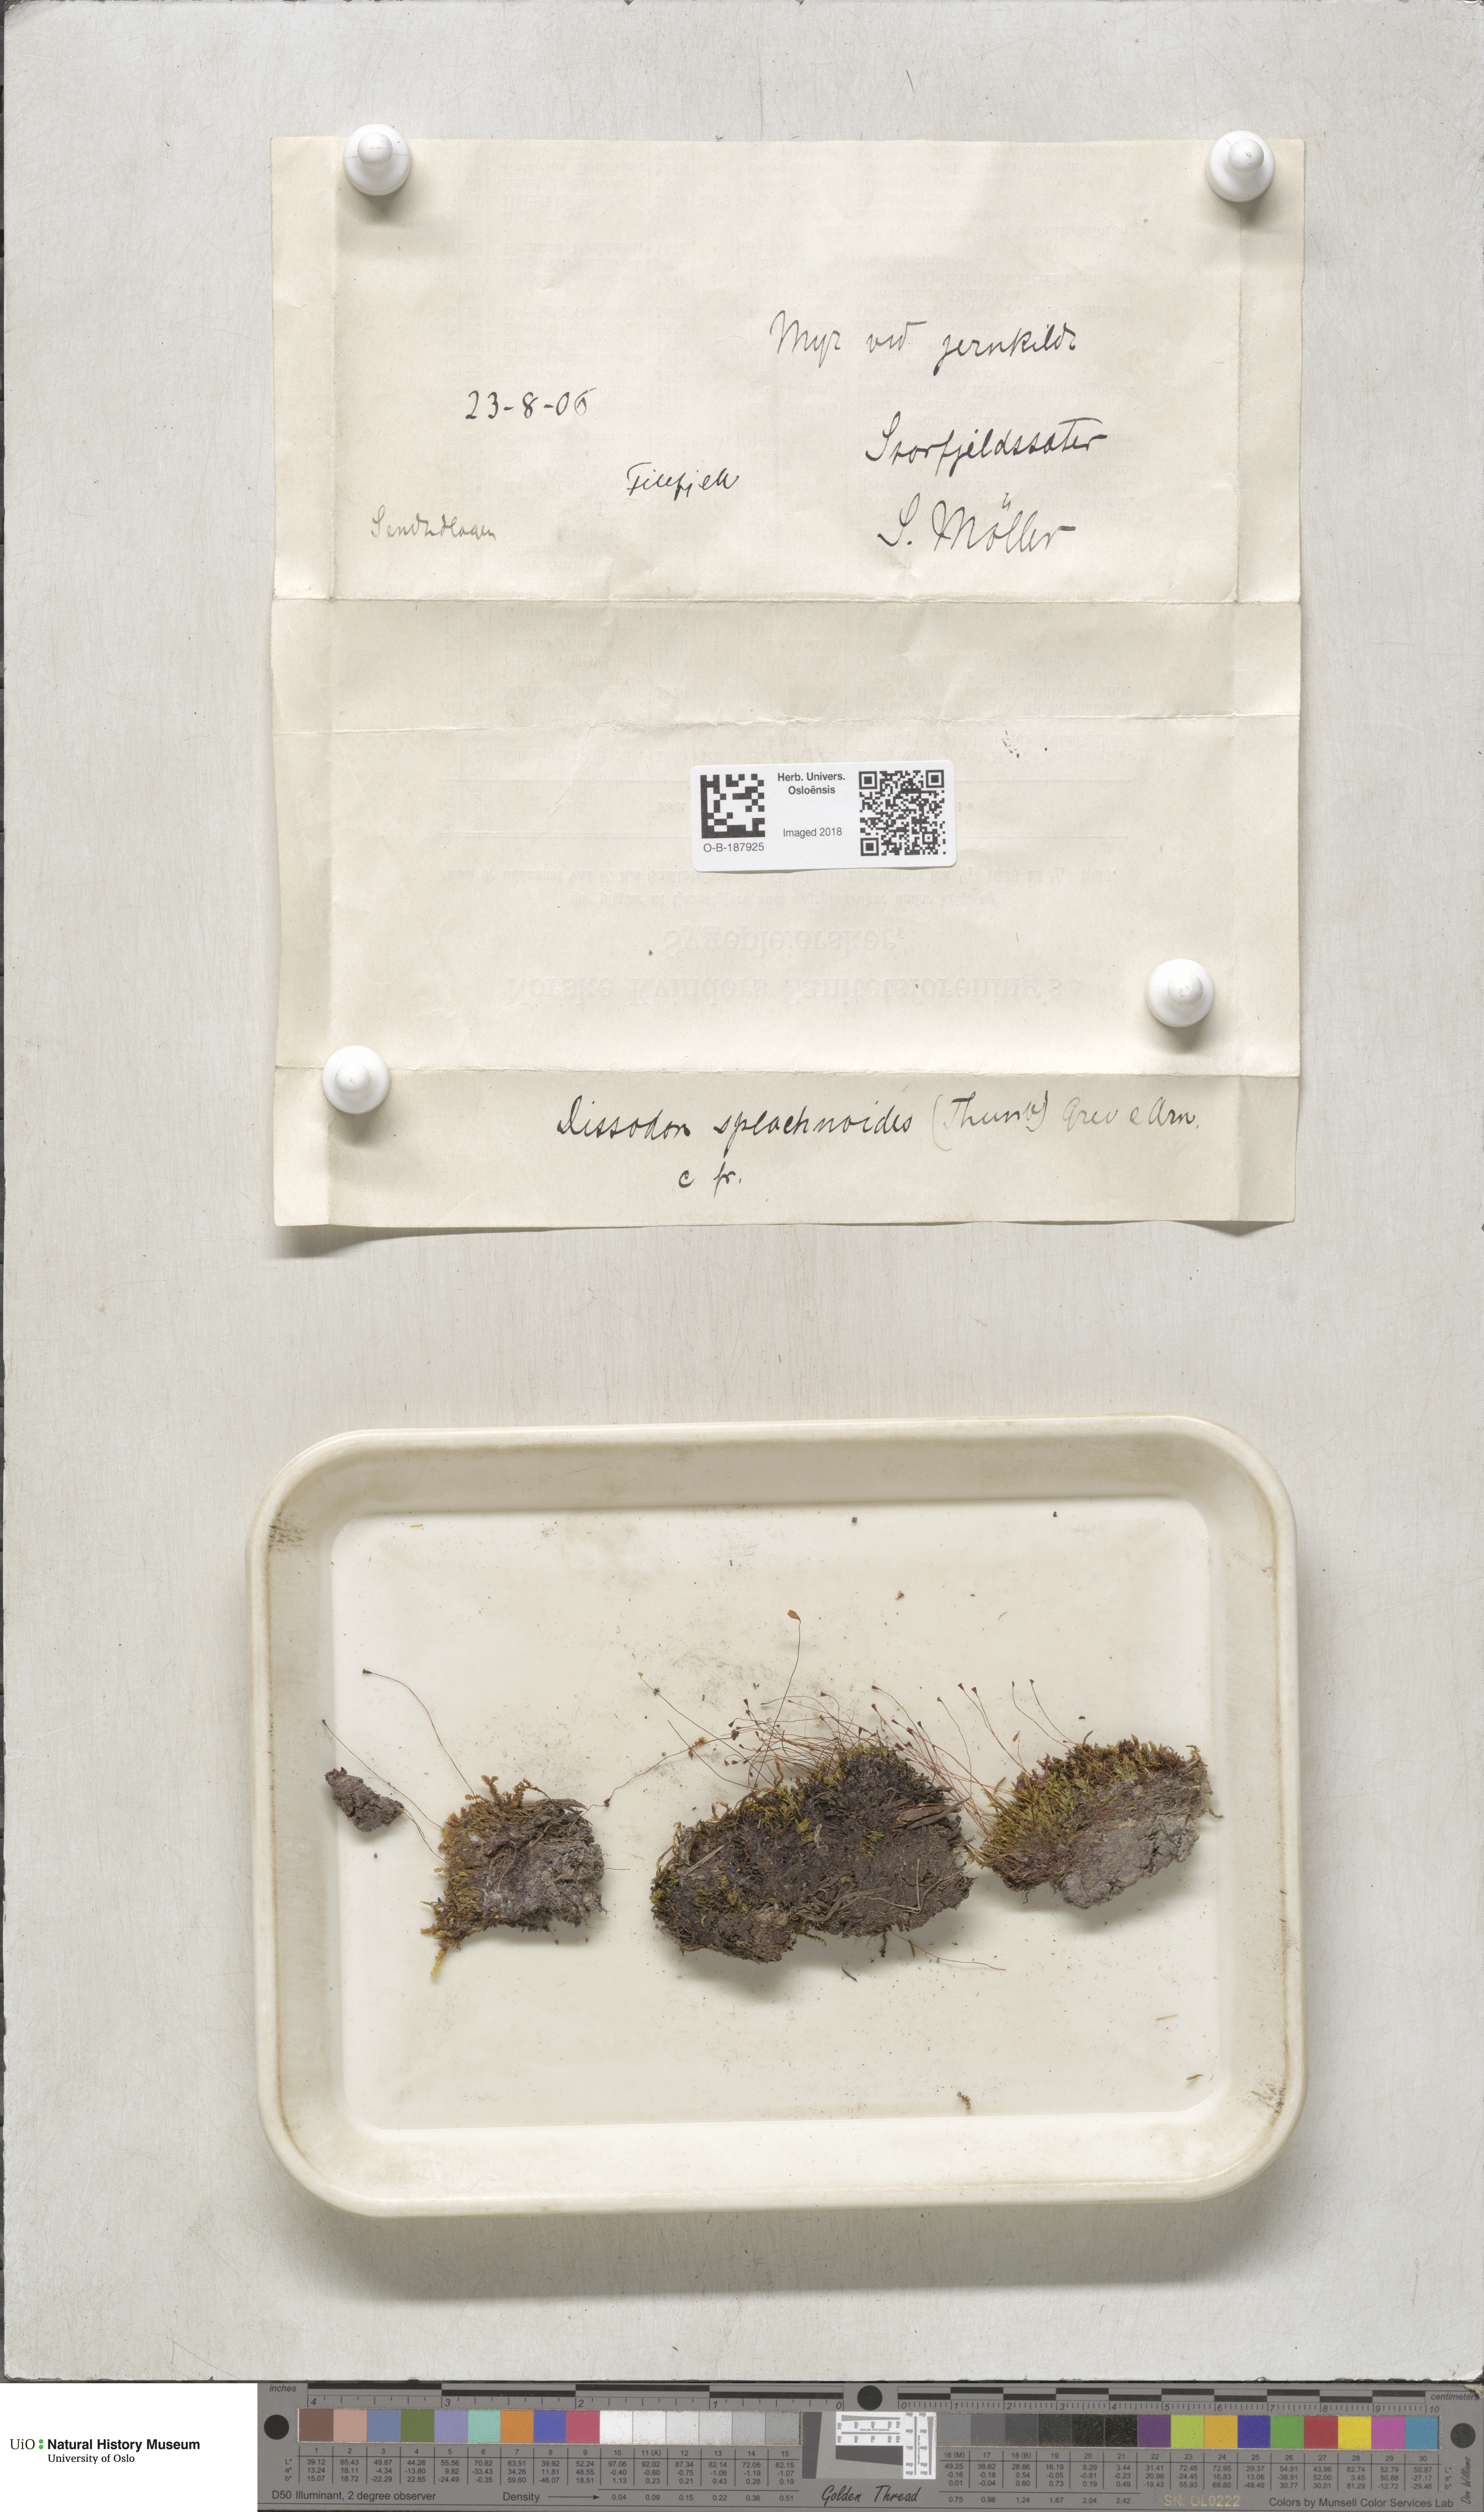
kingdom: Plantae
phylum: Bryophyta
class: Bryopsida
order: Splachnales
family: Splachnaceae
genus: Tayloria
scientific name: Tayloria lingulata
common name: Tongue-leaved trumpet moss
